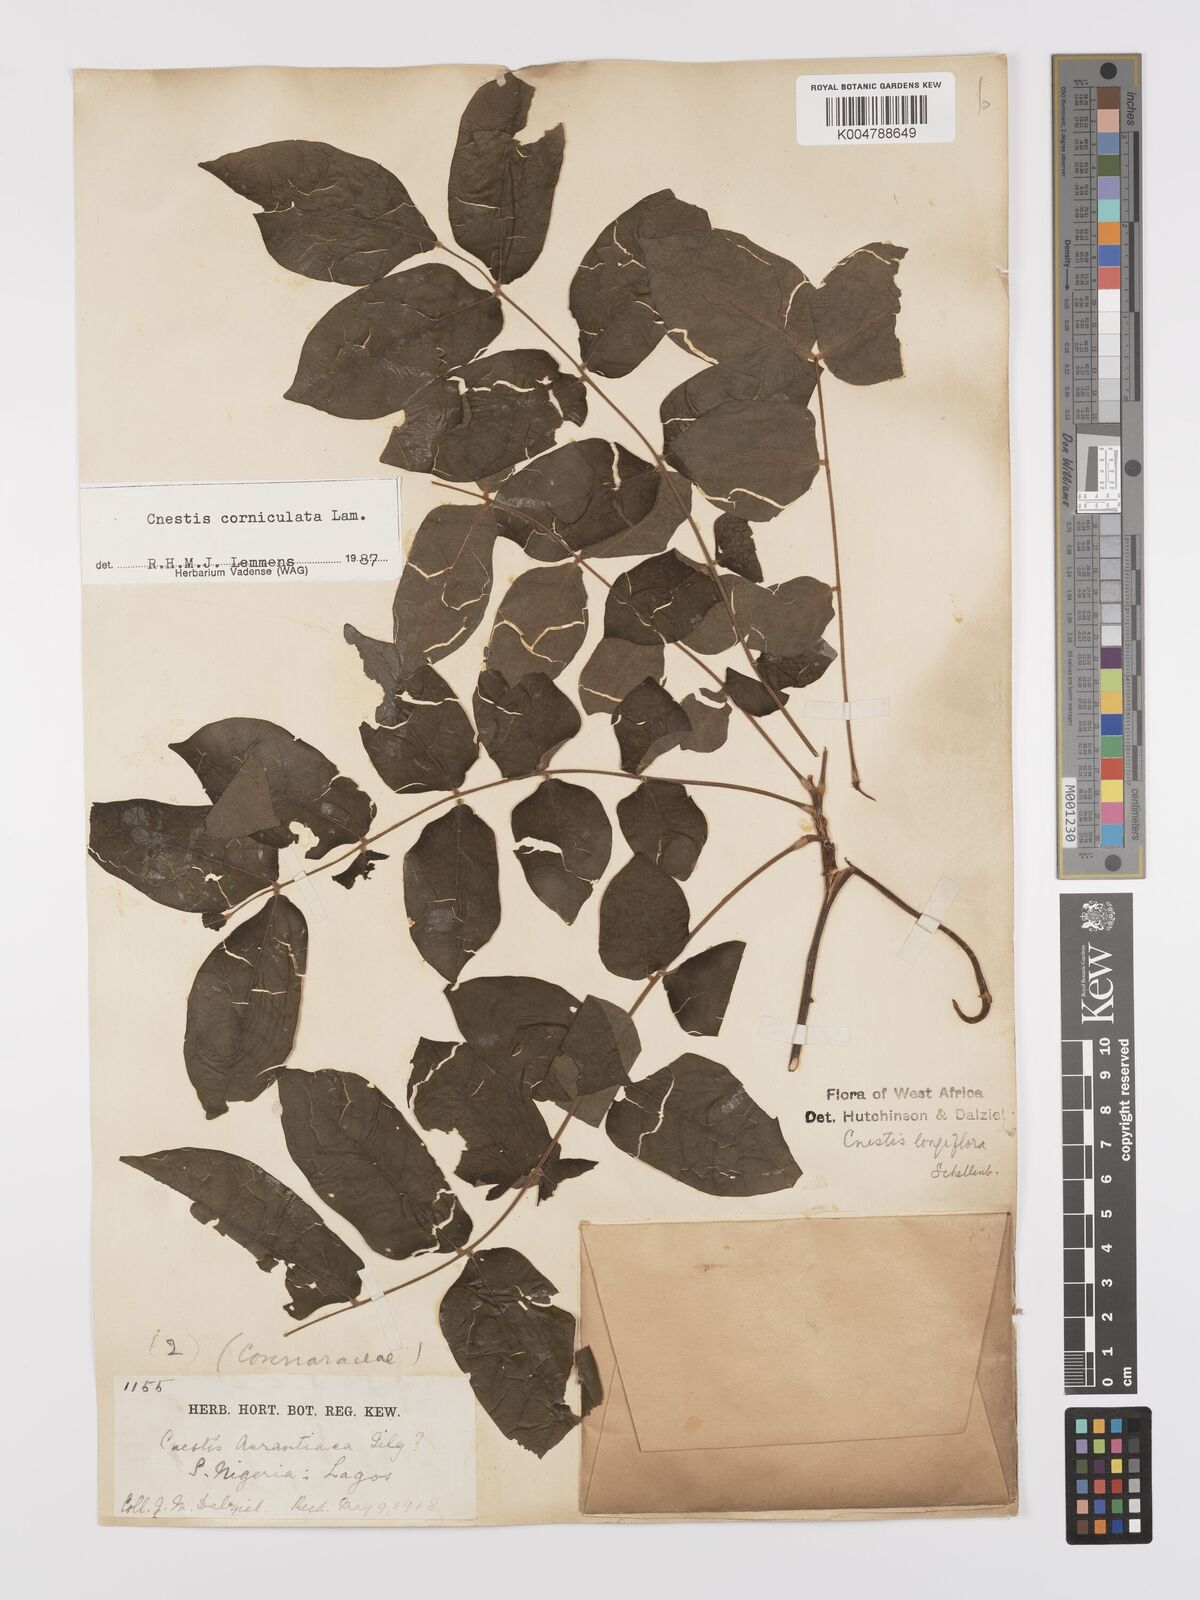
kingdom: Plantae
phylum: Tracheophyta
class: Magnoliopsida
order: Oxalidales
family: Connaraceae
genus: Cnestis
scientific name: Cnestis corniculata
